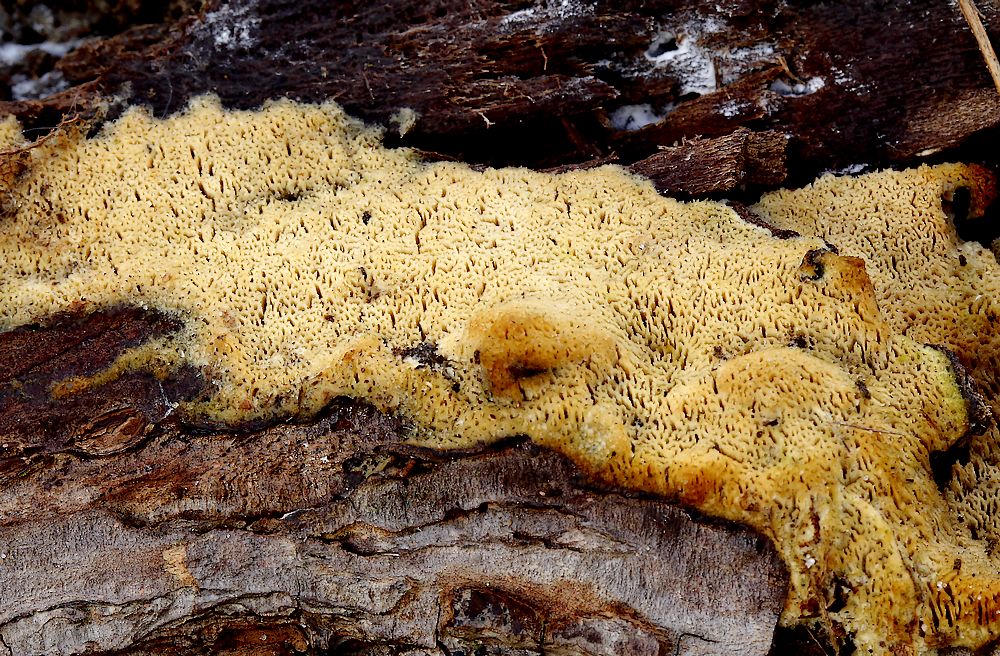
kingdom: Fungi
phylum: Basidiomycota
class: Agaricomycetes
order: Hymenochaetales
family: Schizoporaceae
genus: Xylodon
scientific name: Xylodon subtropicus
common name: labyrint-tandsvamp
